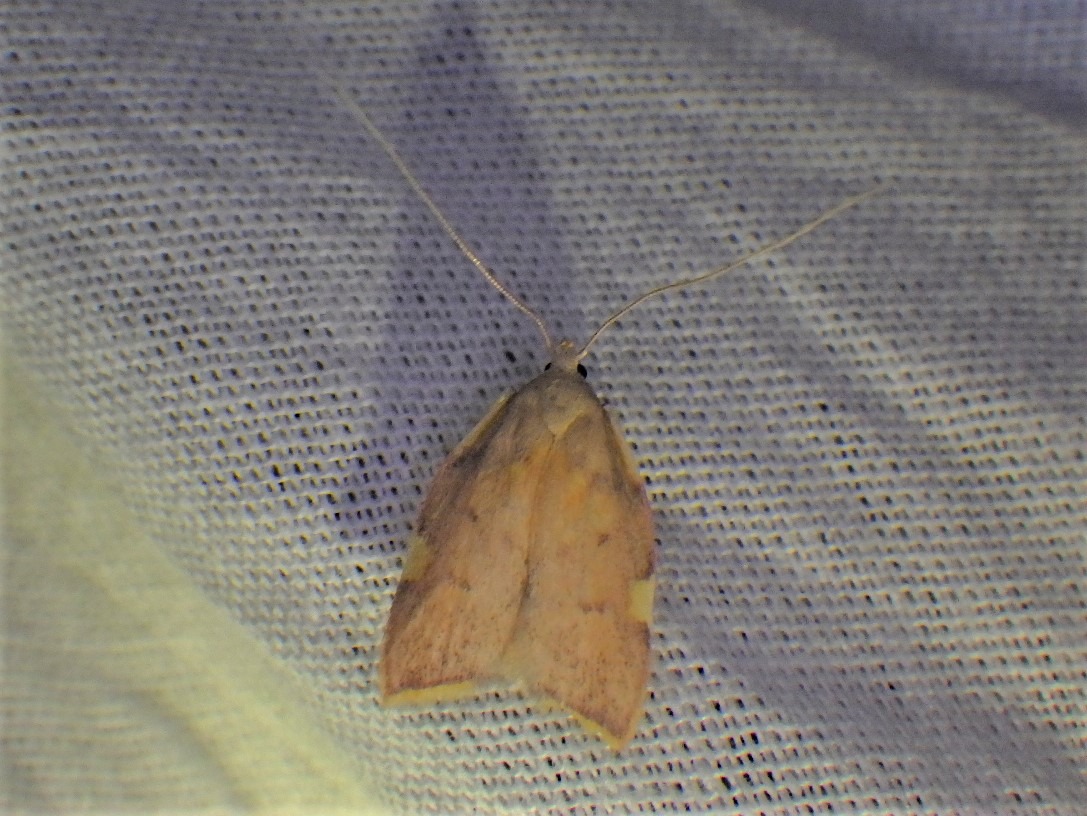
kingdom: Animalia
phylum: Arthropoda
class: Insecta
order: Lepidoptera
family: Peleopodidae
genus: Carcina
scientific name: Carcina quercana
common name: Egeprydvinge
